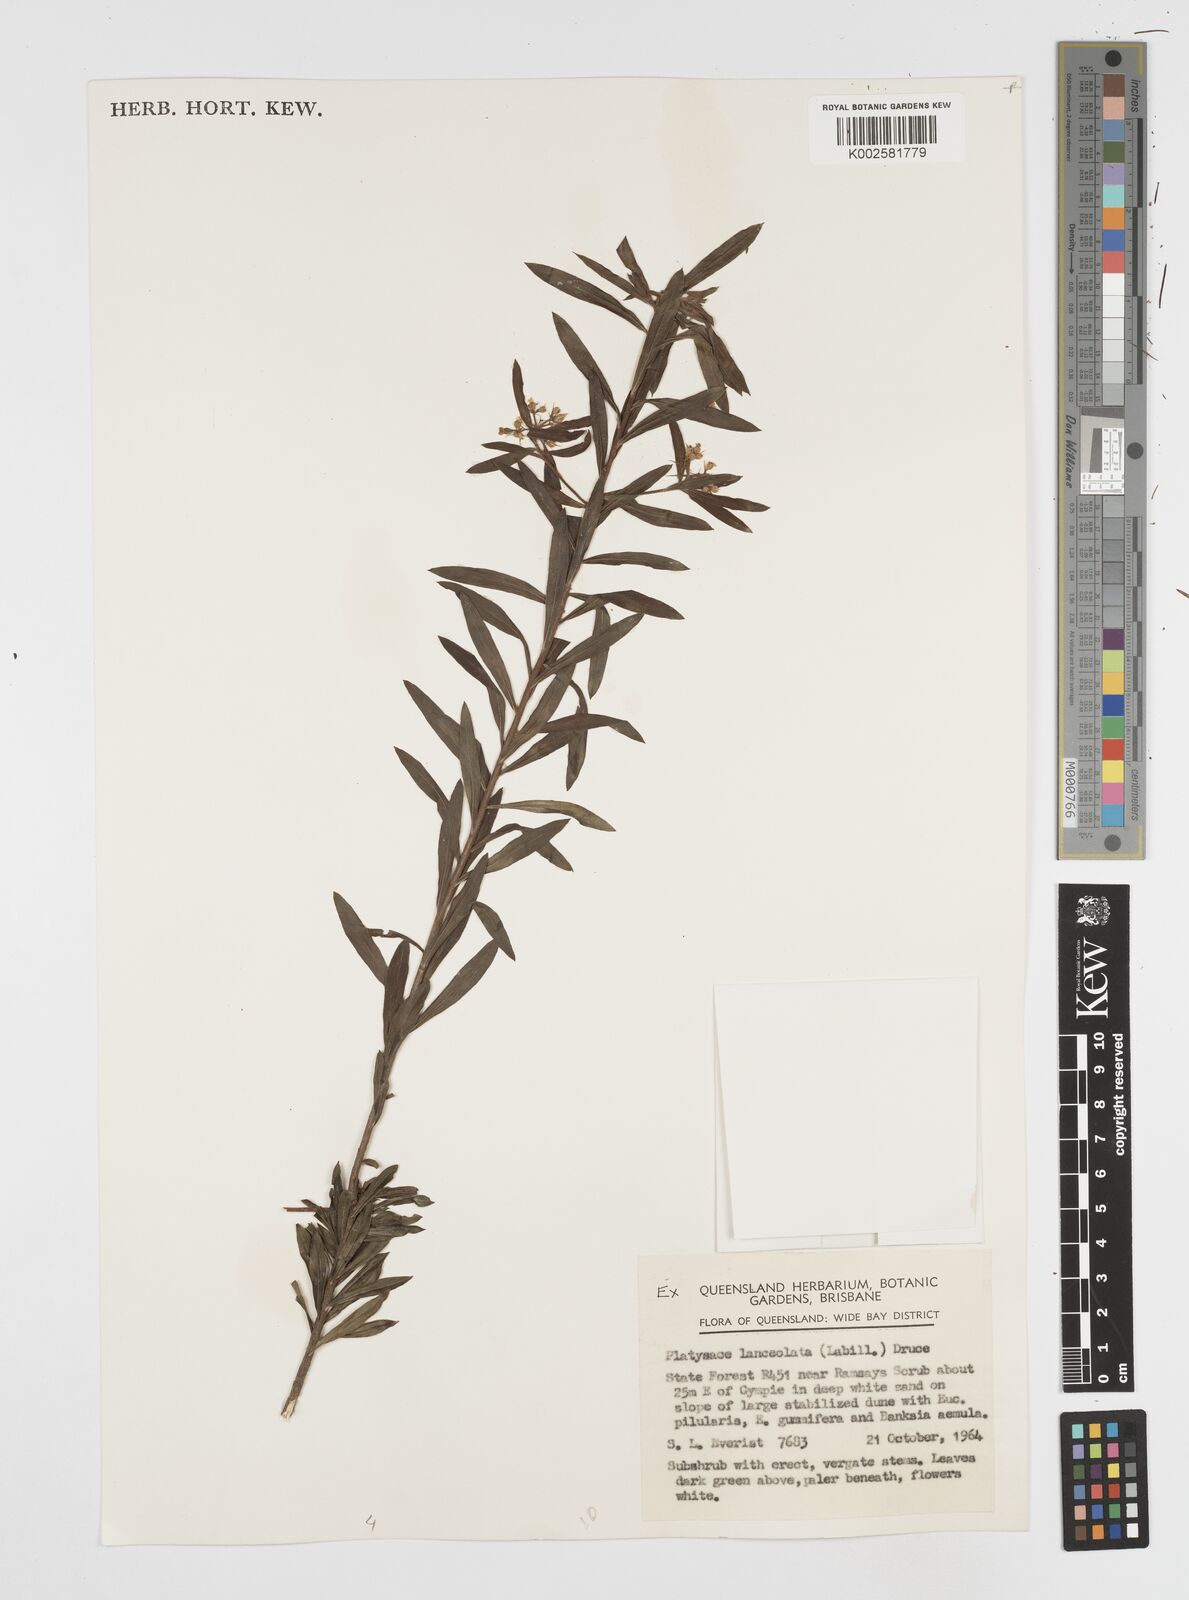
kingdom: Plantae
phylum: Tracheophyta
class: Magnoliopsida
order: Apiales
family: Apiaceae
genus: Platysace
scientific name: Platysace lanceolata
